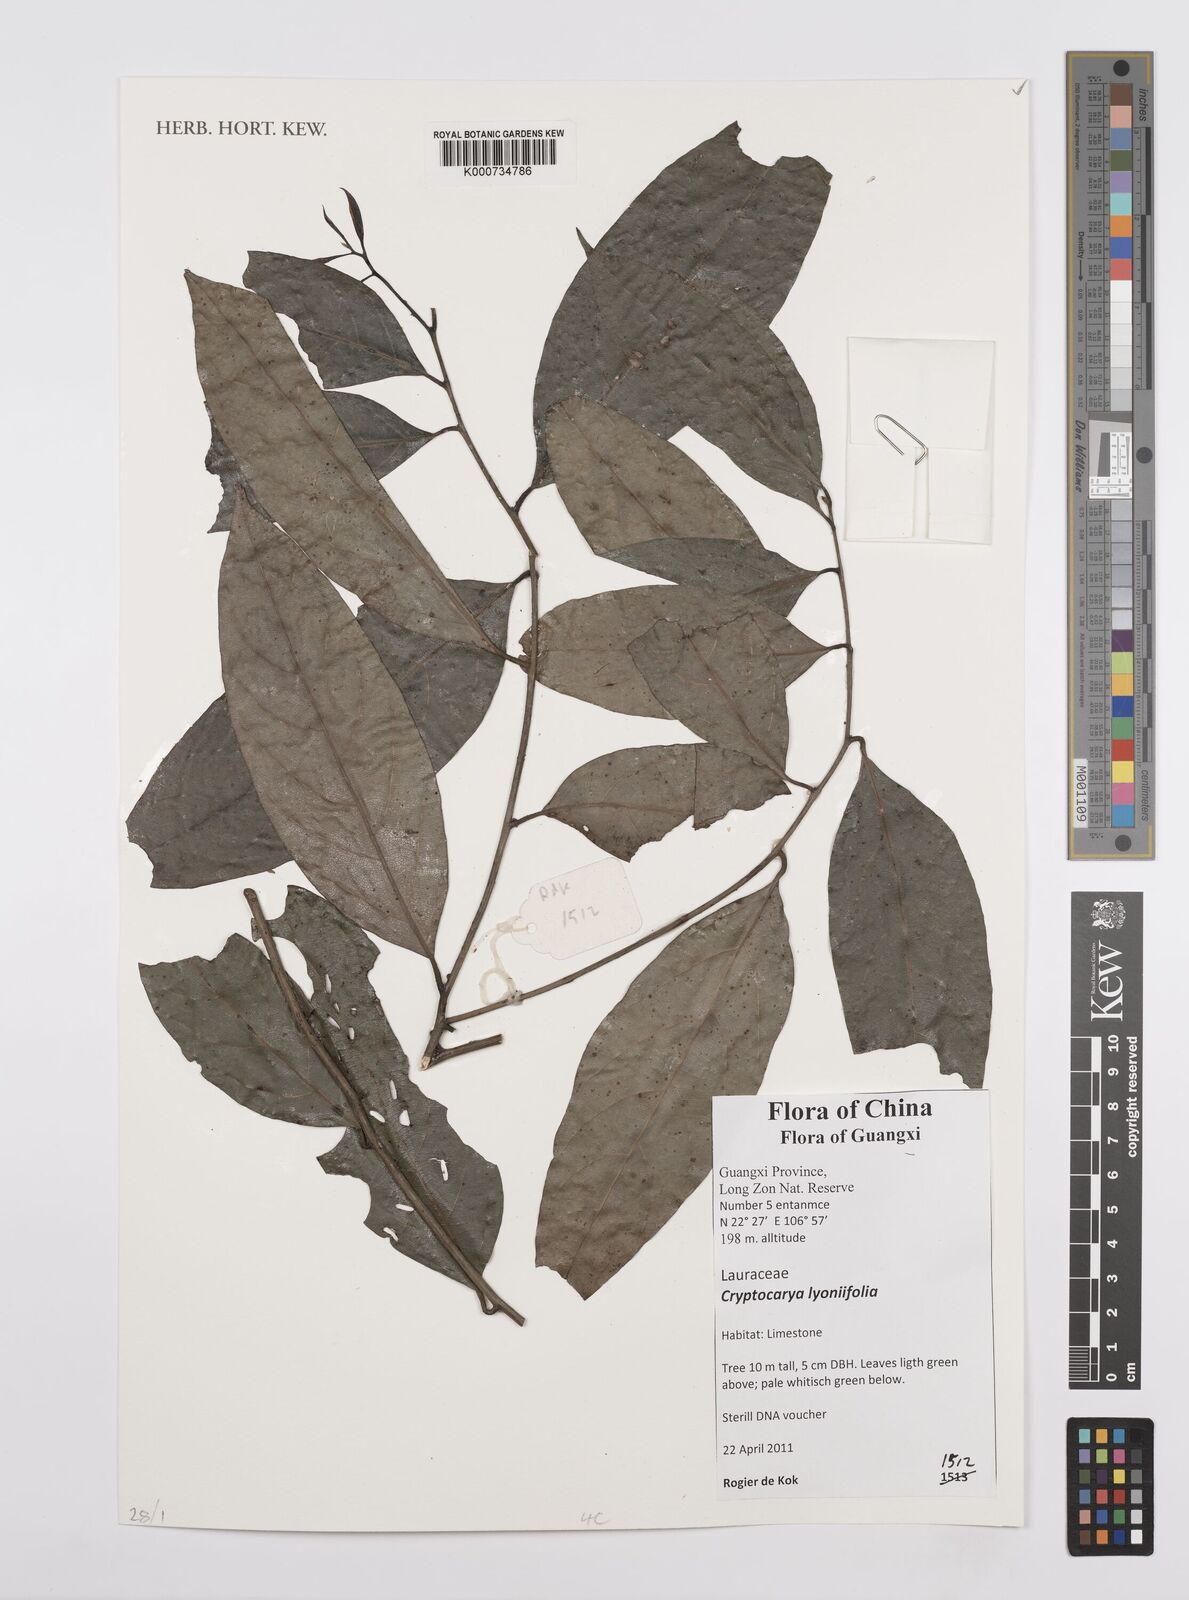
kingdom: Plantae
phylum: Tracheophyta
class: Magnoliopsida
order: Laurales
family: Lauraceae
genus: Cryptocarya
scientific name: Cryptocarya lyoniifolia
